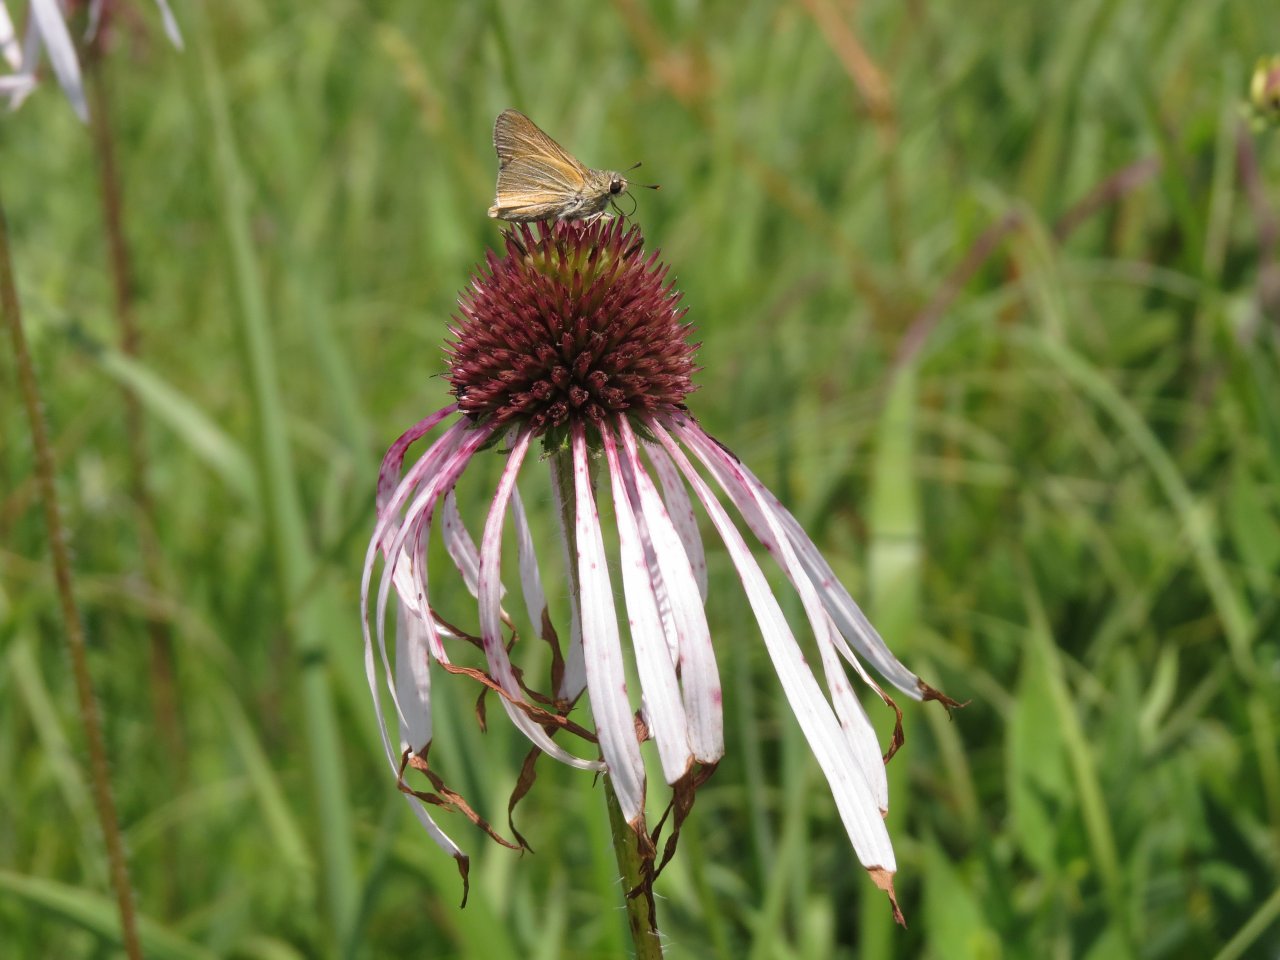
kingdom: Animalia
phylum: Arthropoda
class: Insecta
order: Lepidoptera
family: Hesperiidae
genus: Atrytone
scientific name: Atrytone arogos
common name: Arogos Skipper
